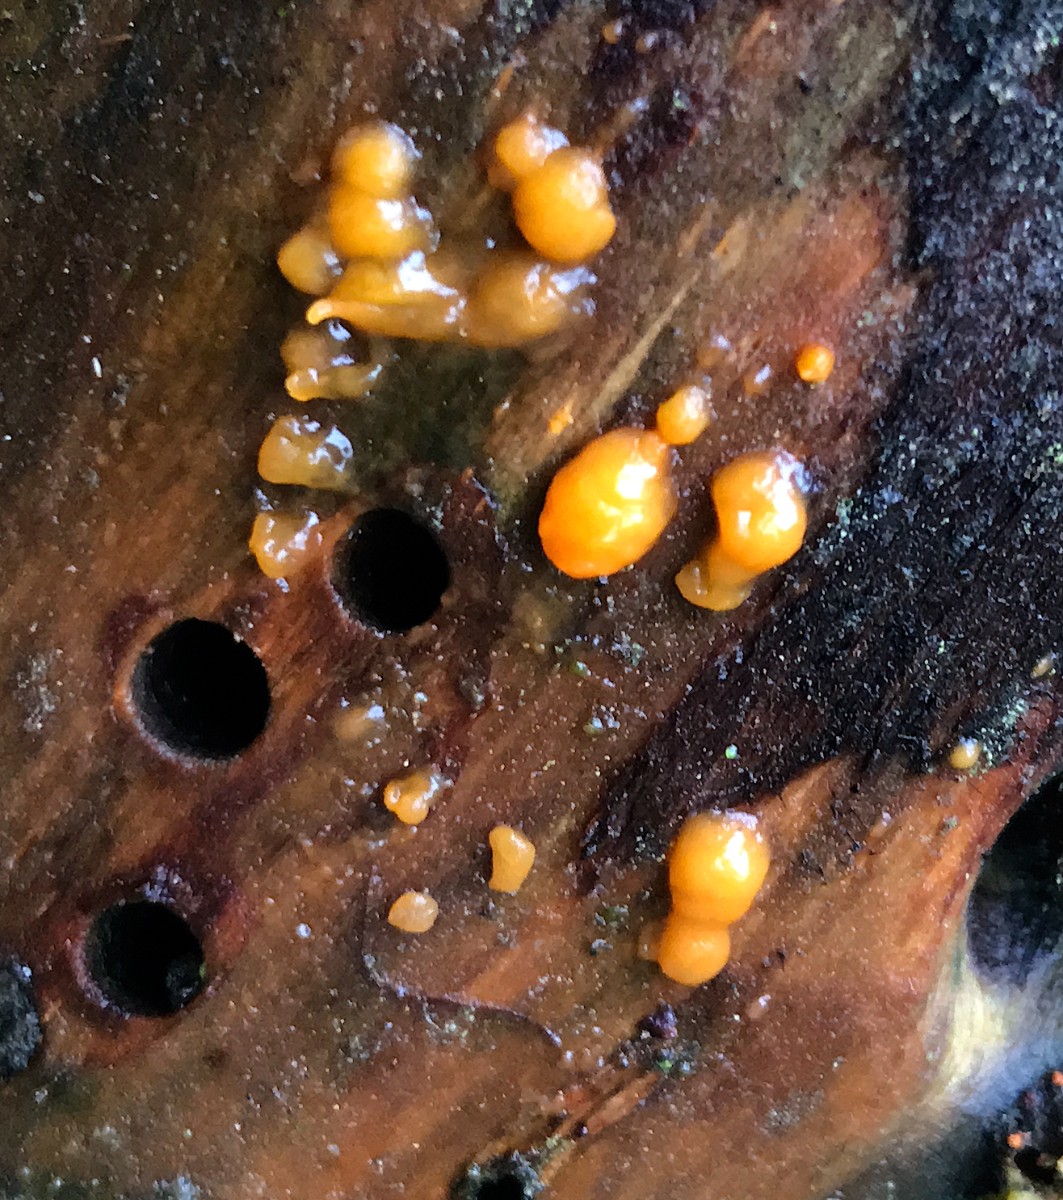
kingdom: Fungi
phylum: Basidiomycota
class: Dacrymycetes
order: Dacrymycetales
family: Dacrymycetaceae
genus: Dacrymyces
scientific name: Dacrymyces stillatus
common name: almindelig tåresvamp
